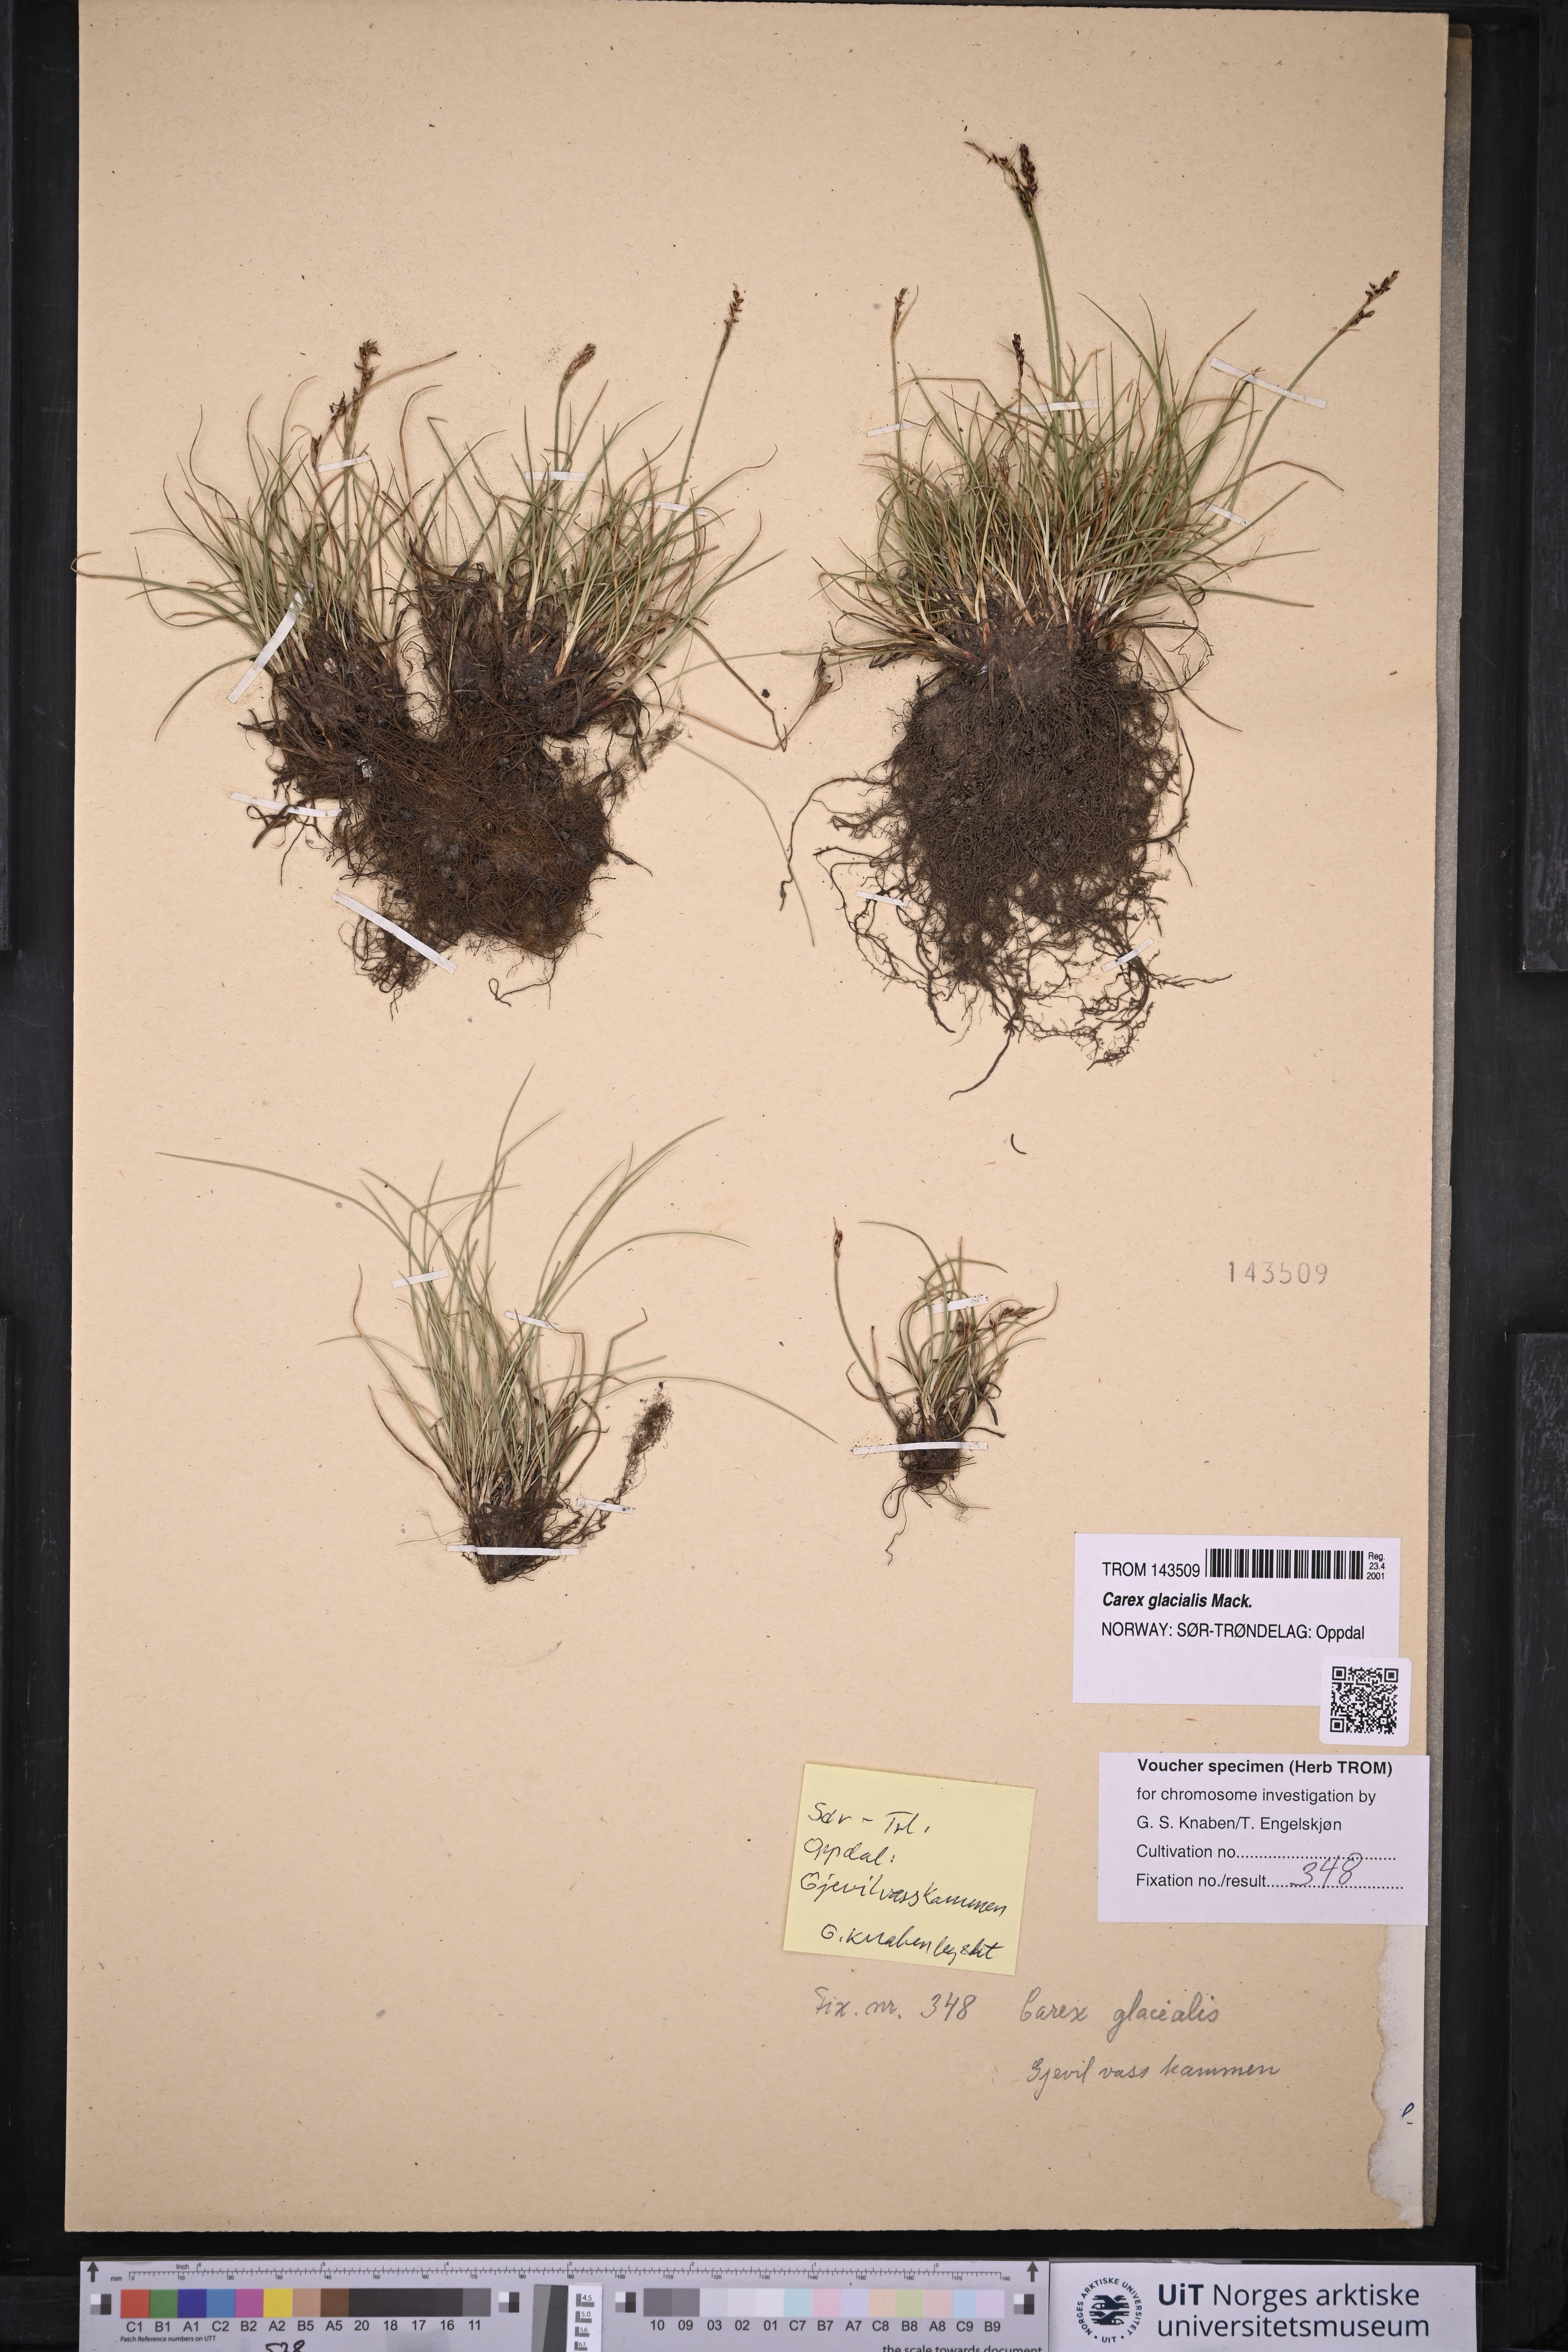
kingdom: Plantae
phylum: Tracheophyta
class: Liliopsida
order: Poales
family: Cyperaceae
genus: Carex
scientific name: Carex glacialis
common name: Newfoundland sedge
